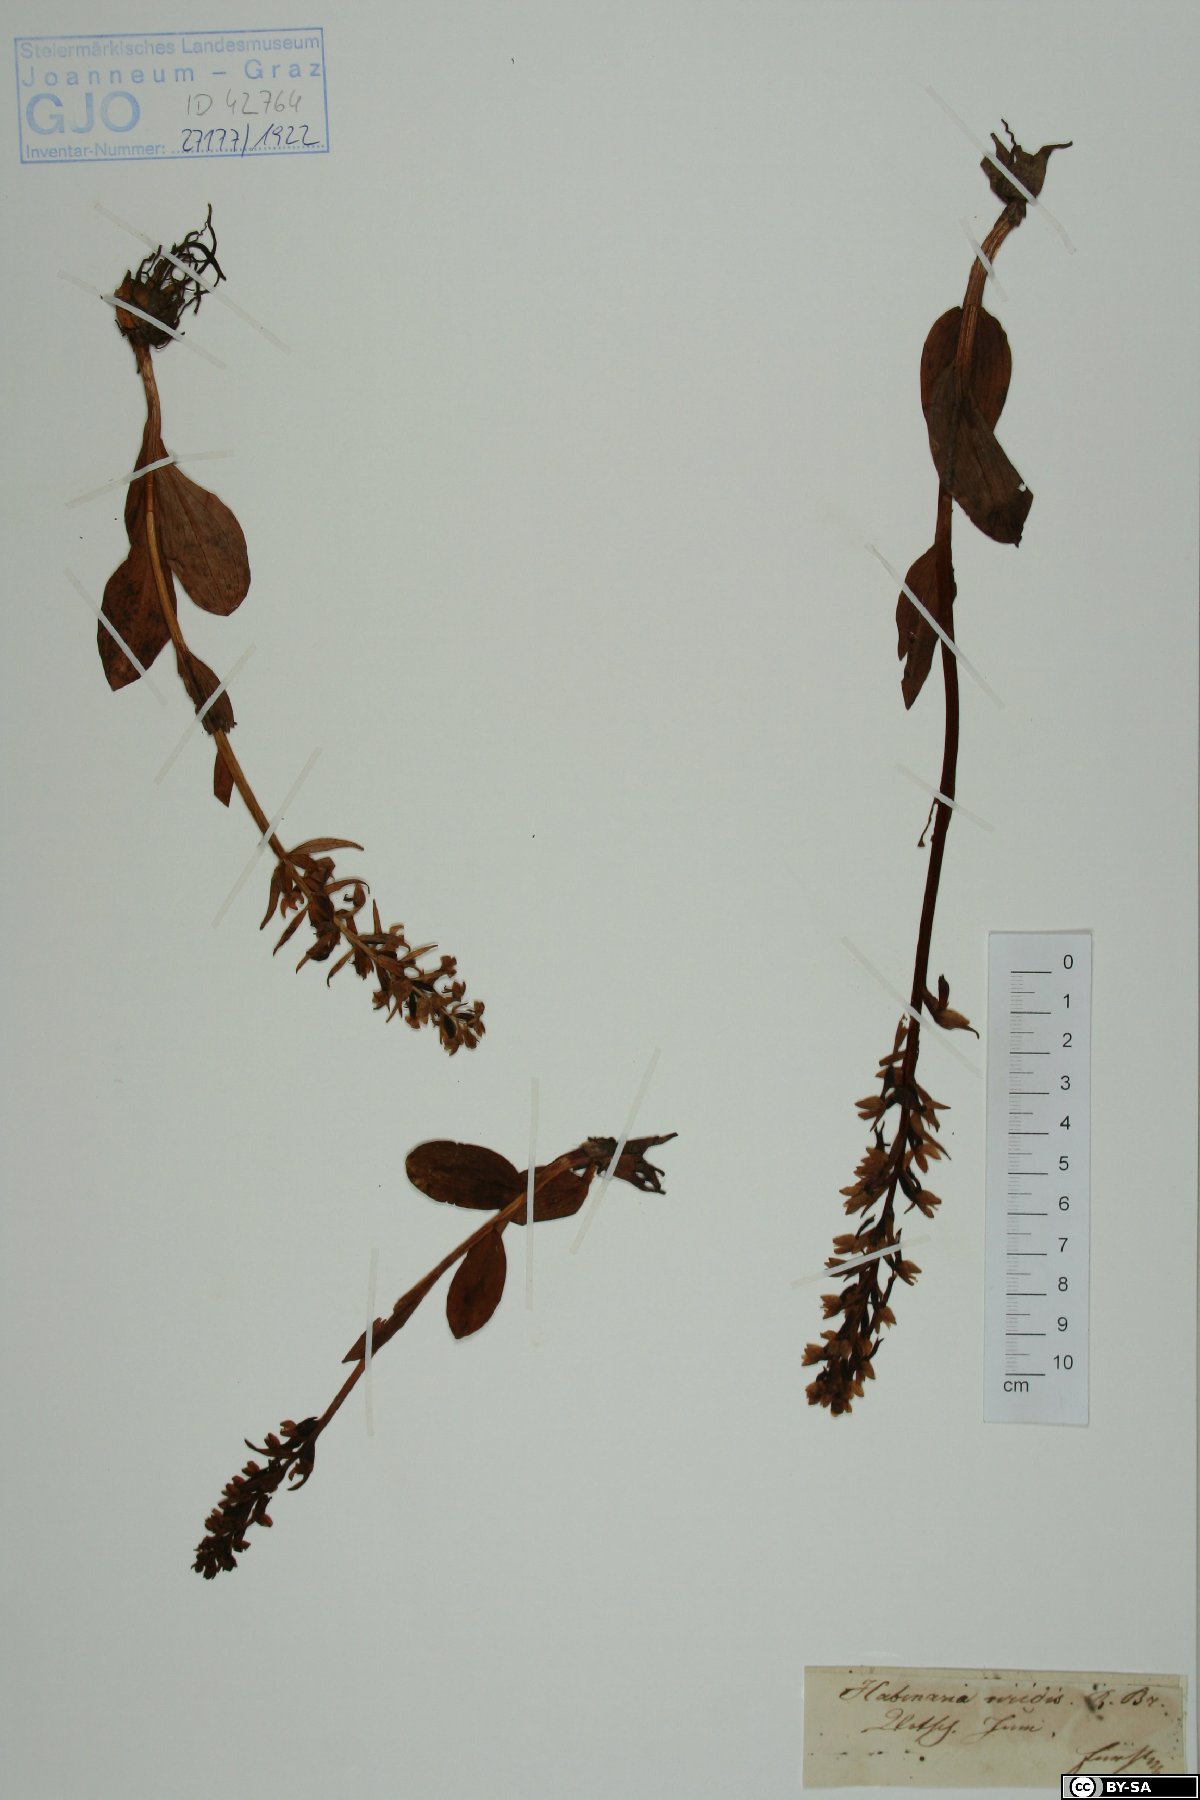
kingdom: Plantae
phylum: Tracheophyta
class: Liliopsida
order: Asparagales
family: Orchidaceae
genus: Dactylorhiza
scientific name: Dactylorhiza viridis
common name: Longbract frog orchid
